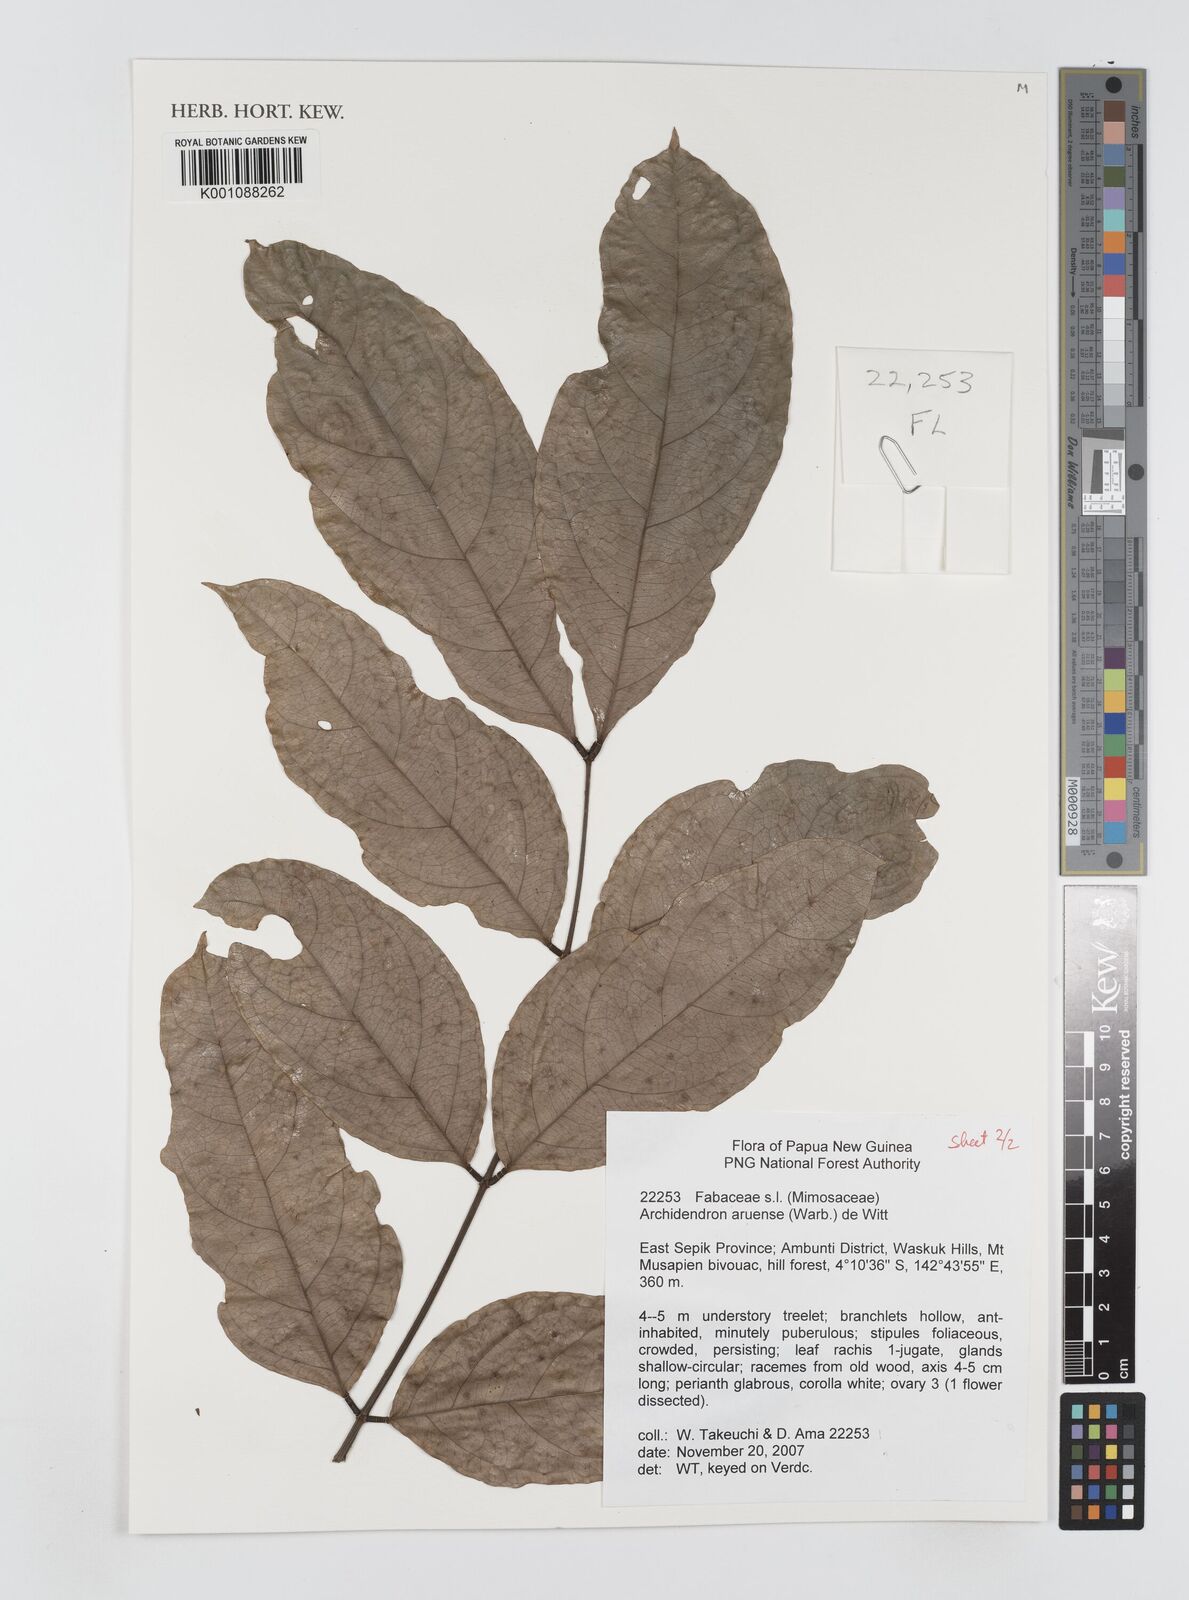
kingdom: Plantae
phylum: Tracheophyta
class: Magnoliopsida
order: Fabales
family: Fabaceae
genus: Archidendron
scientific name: Archidendron aruense
